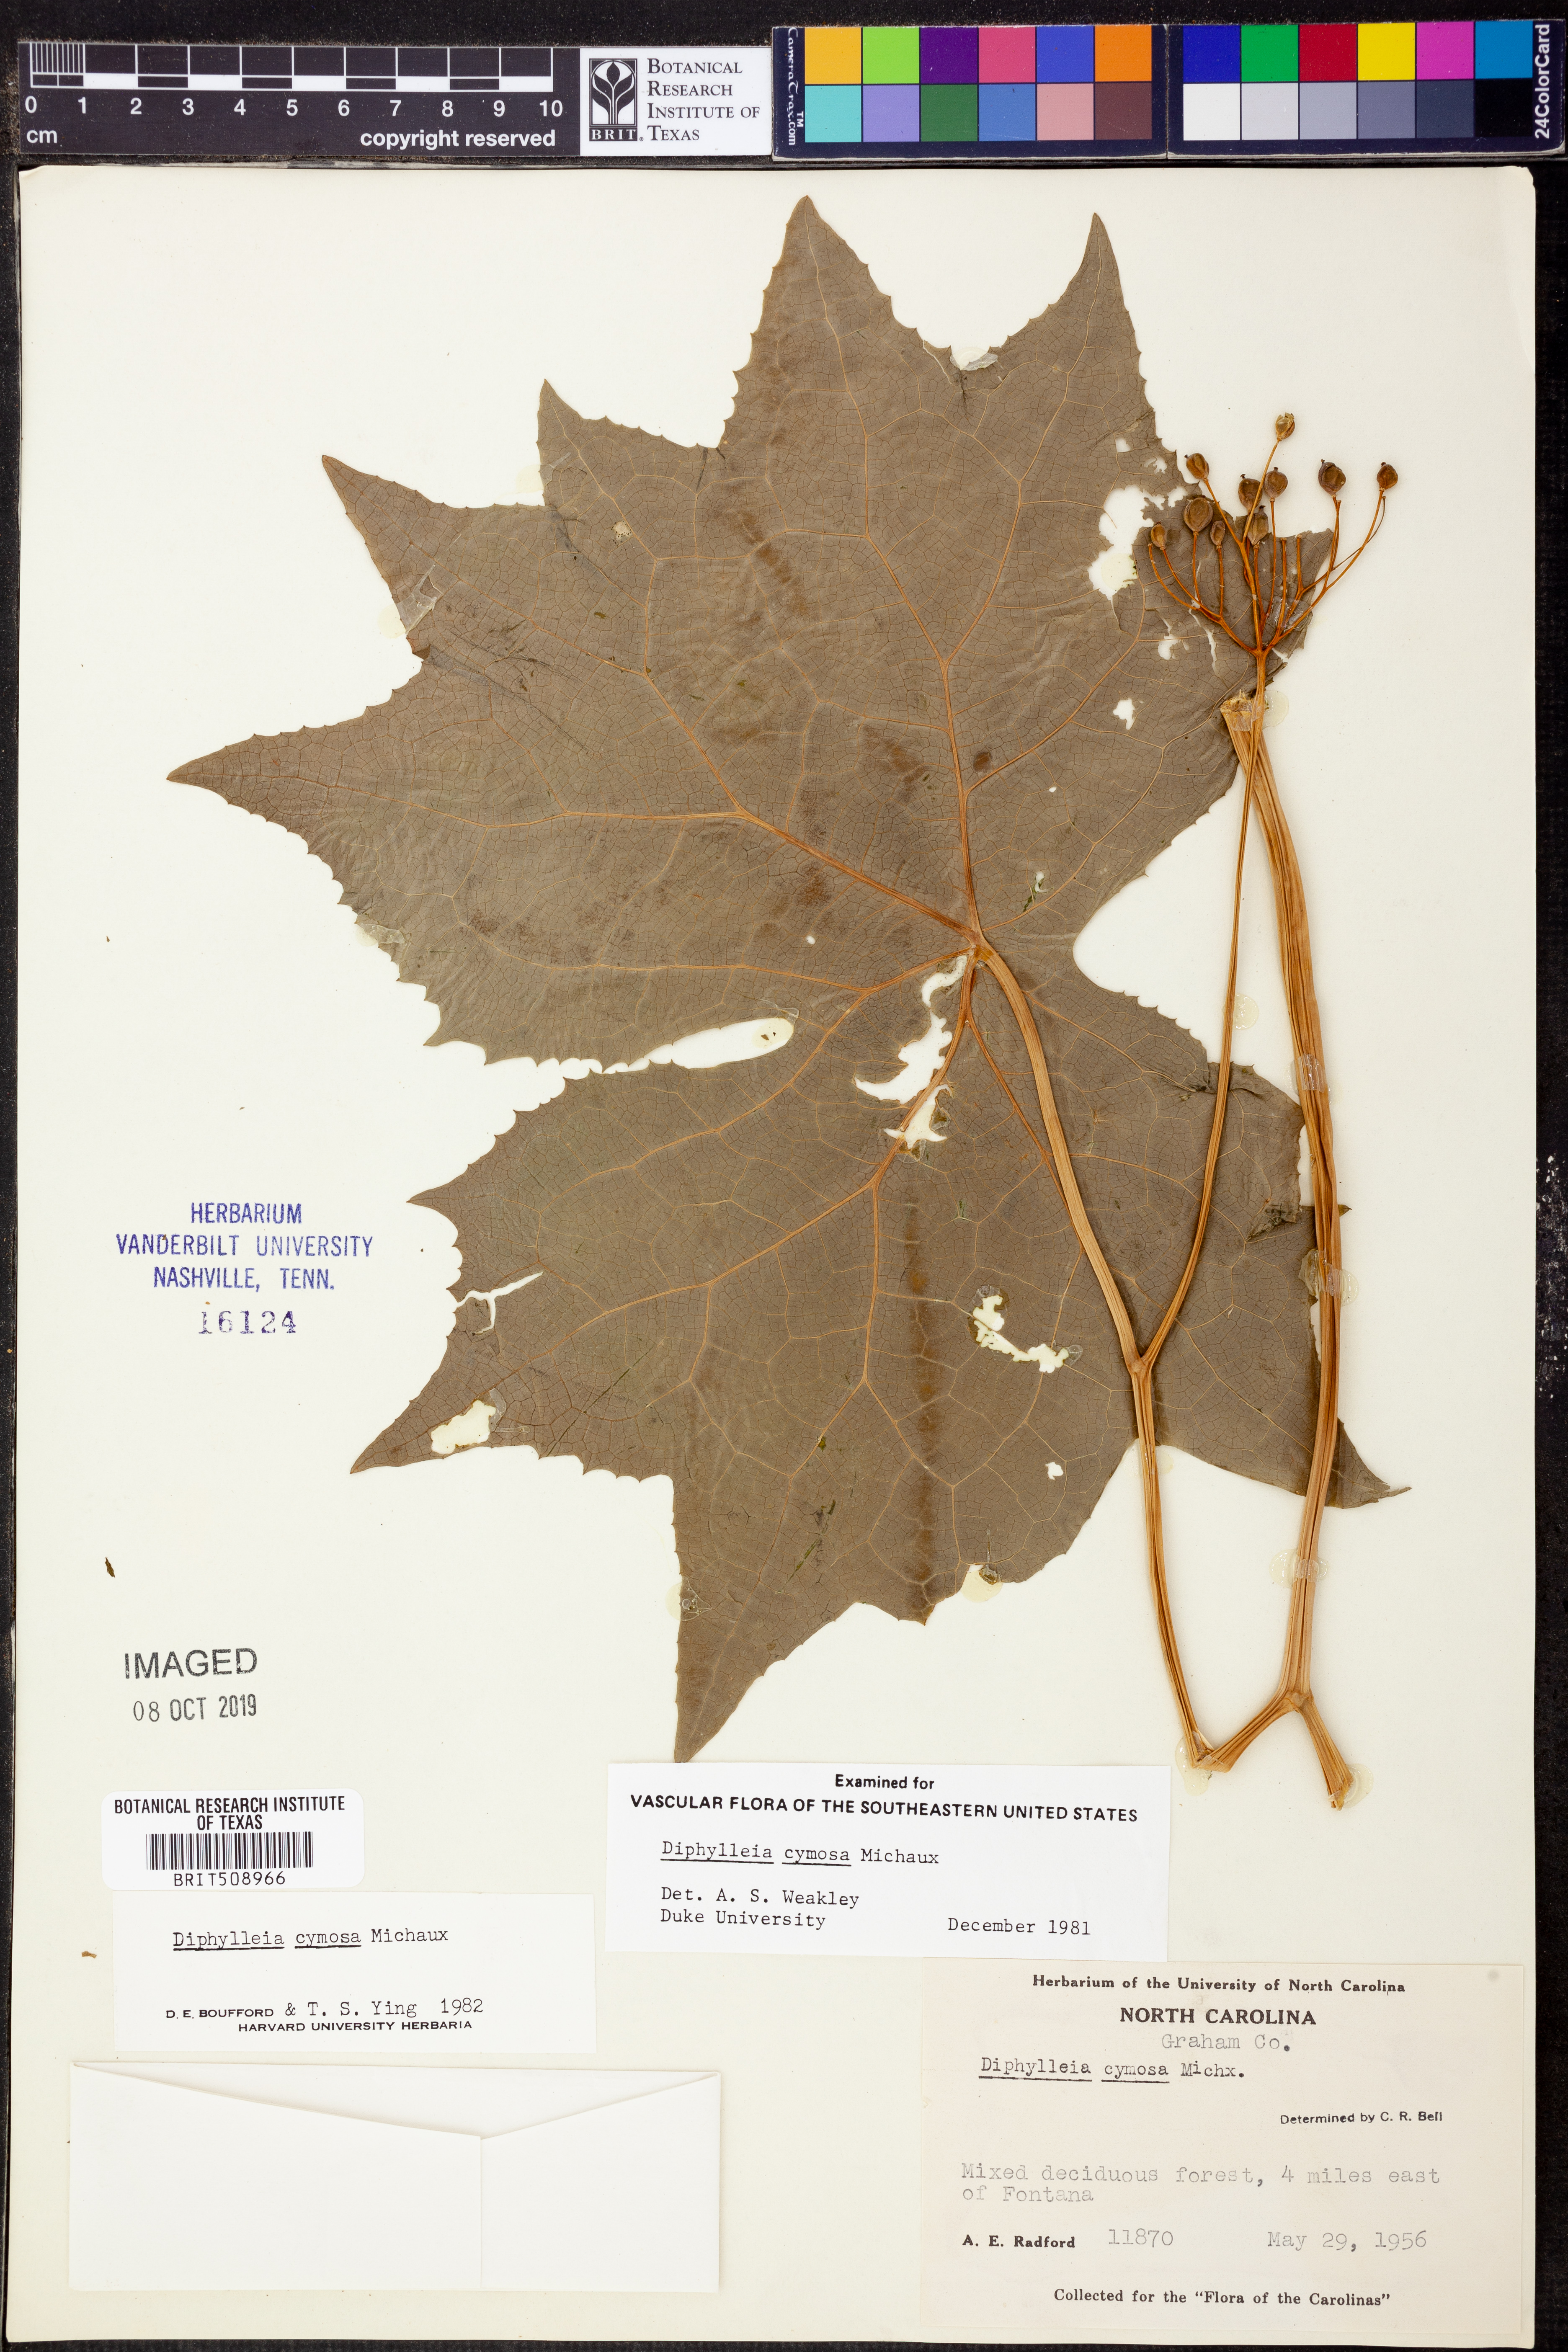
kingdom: Plantae
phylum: Tracheophyta
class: Magnoliopsida
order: Ranunculales
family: Berberidaceae
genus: Diphylleia
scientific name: Diphylleia cymosa
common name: Umbrella-leaf
